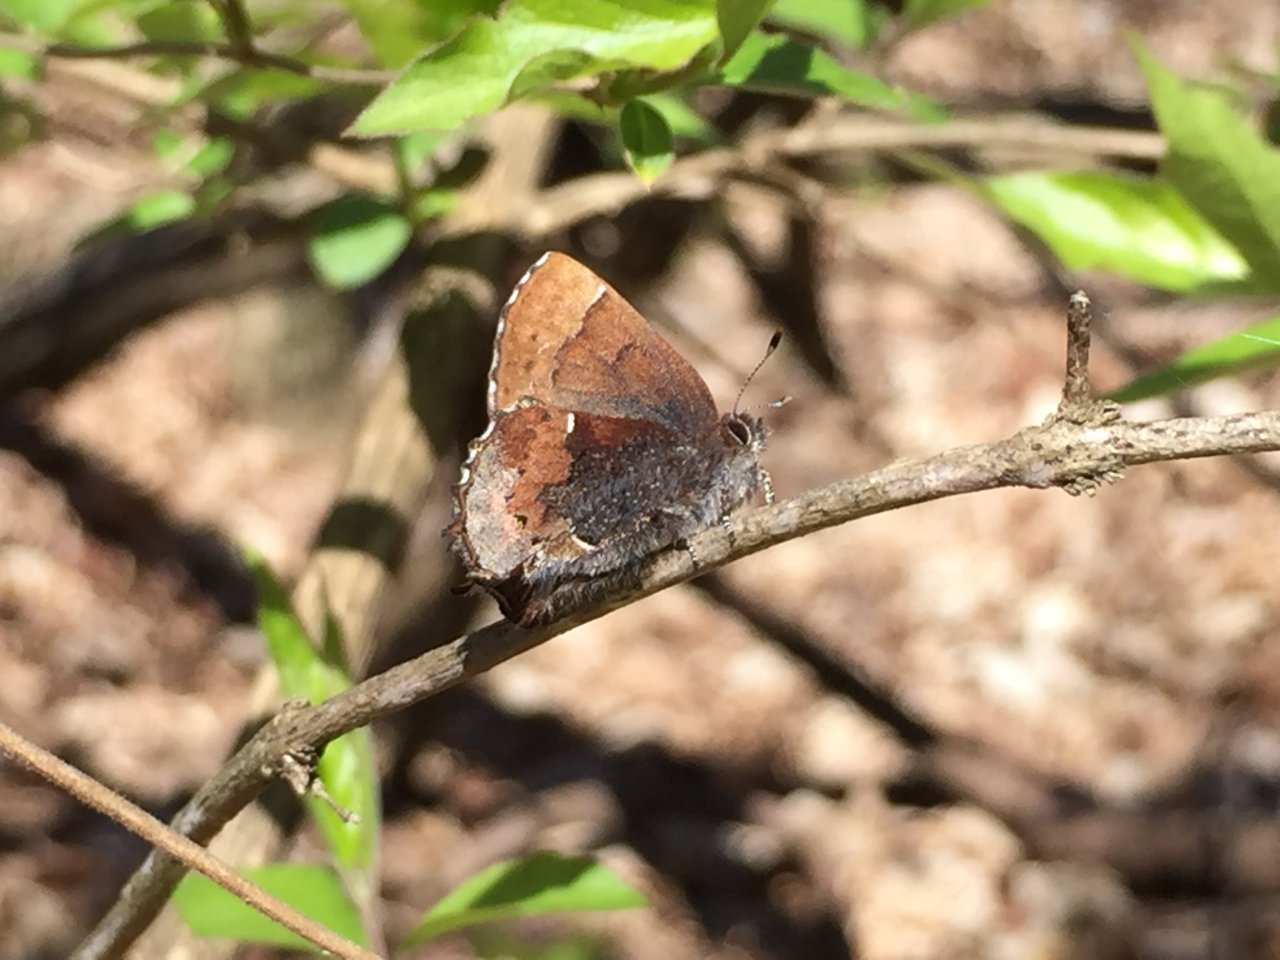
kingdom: Animalia
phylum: Arthropoda
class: Insecta
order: Lepidoptera
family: Lycaenidae
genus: Incisalia
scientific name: Incisalia henrici
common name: Henry's Elfin
